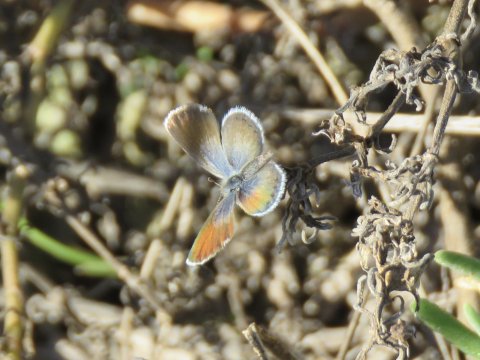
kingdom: Animalia
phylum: Arthropoda
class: Insecta
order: Lepidoptera
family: Lycaenidae
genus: Brephidium
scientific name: Brephidium exilis
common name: Western Pygmy-Blue
